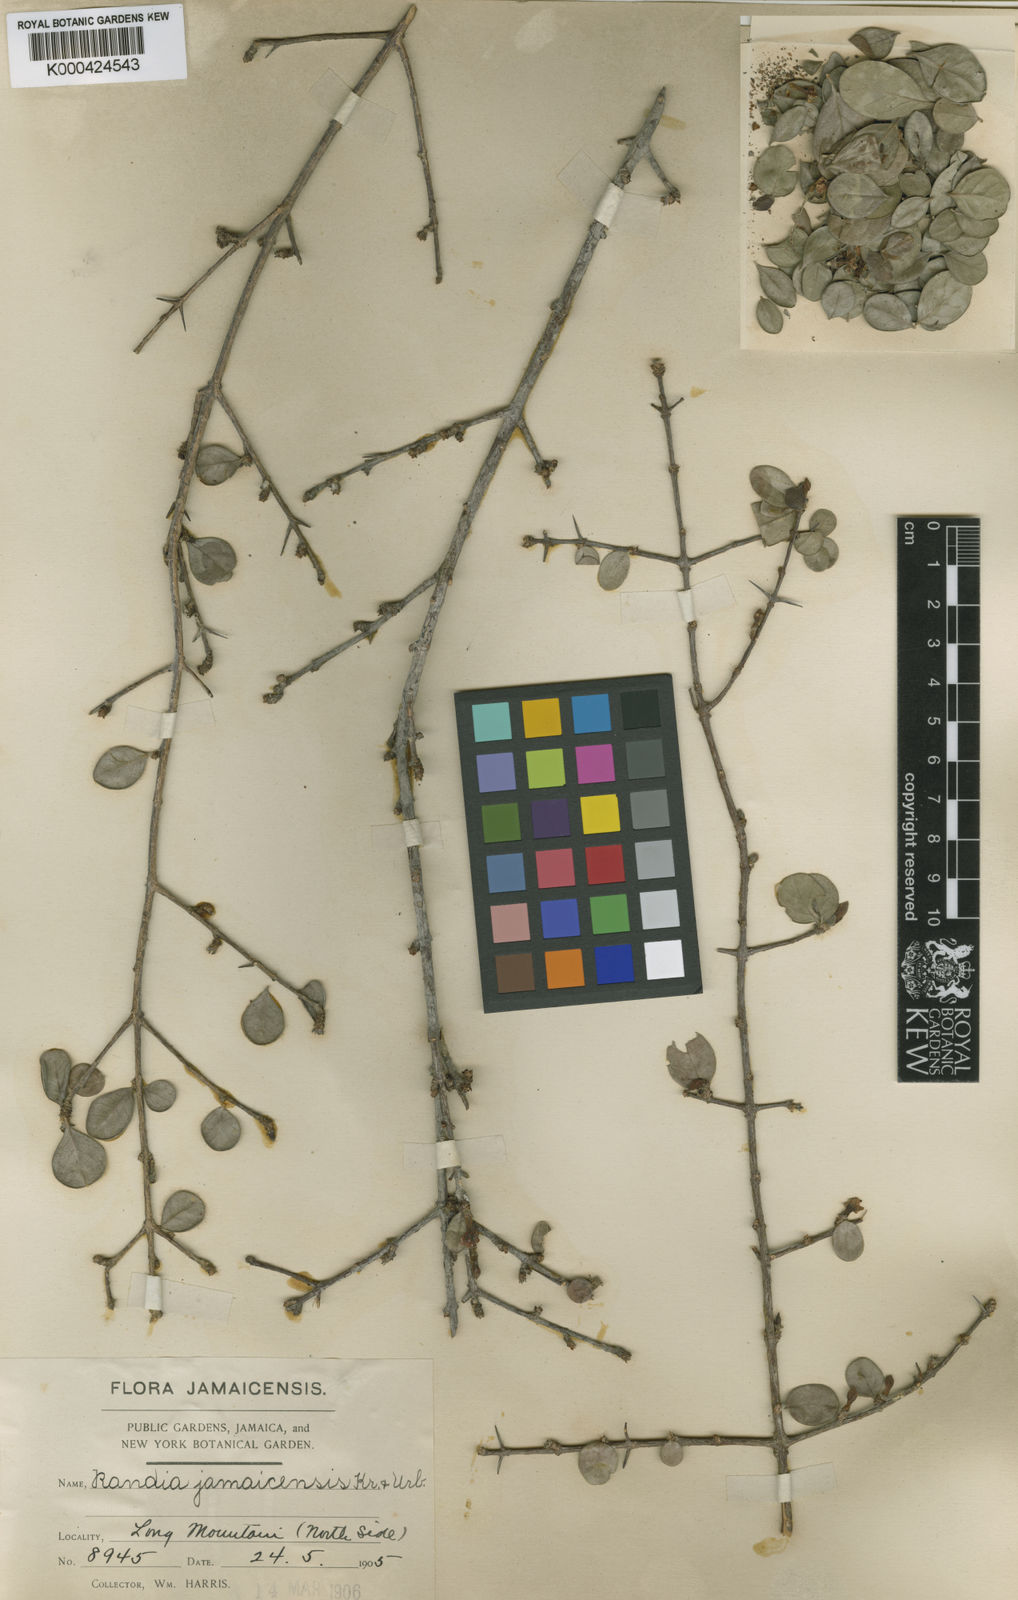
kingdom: Plantae
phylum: Tracheophyta
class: Magnoliopsida
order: Gentianales
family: Rubiaceae
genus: Randia
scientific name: Randia aculeata
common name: Inkberry
